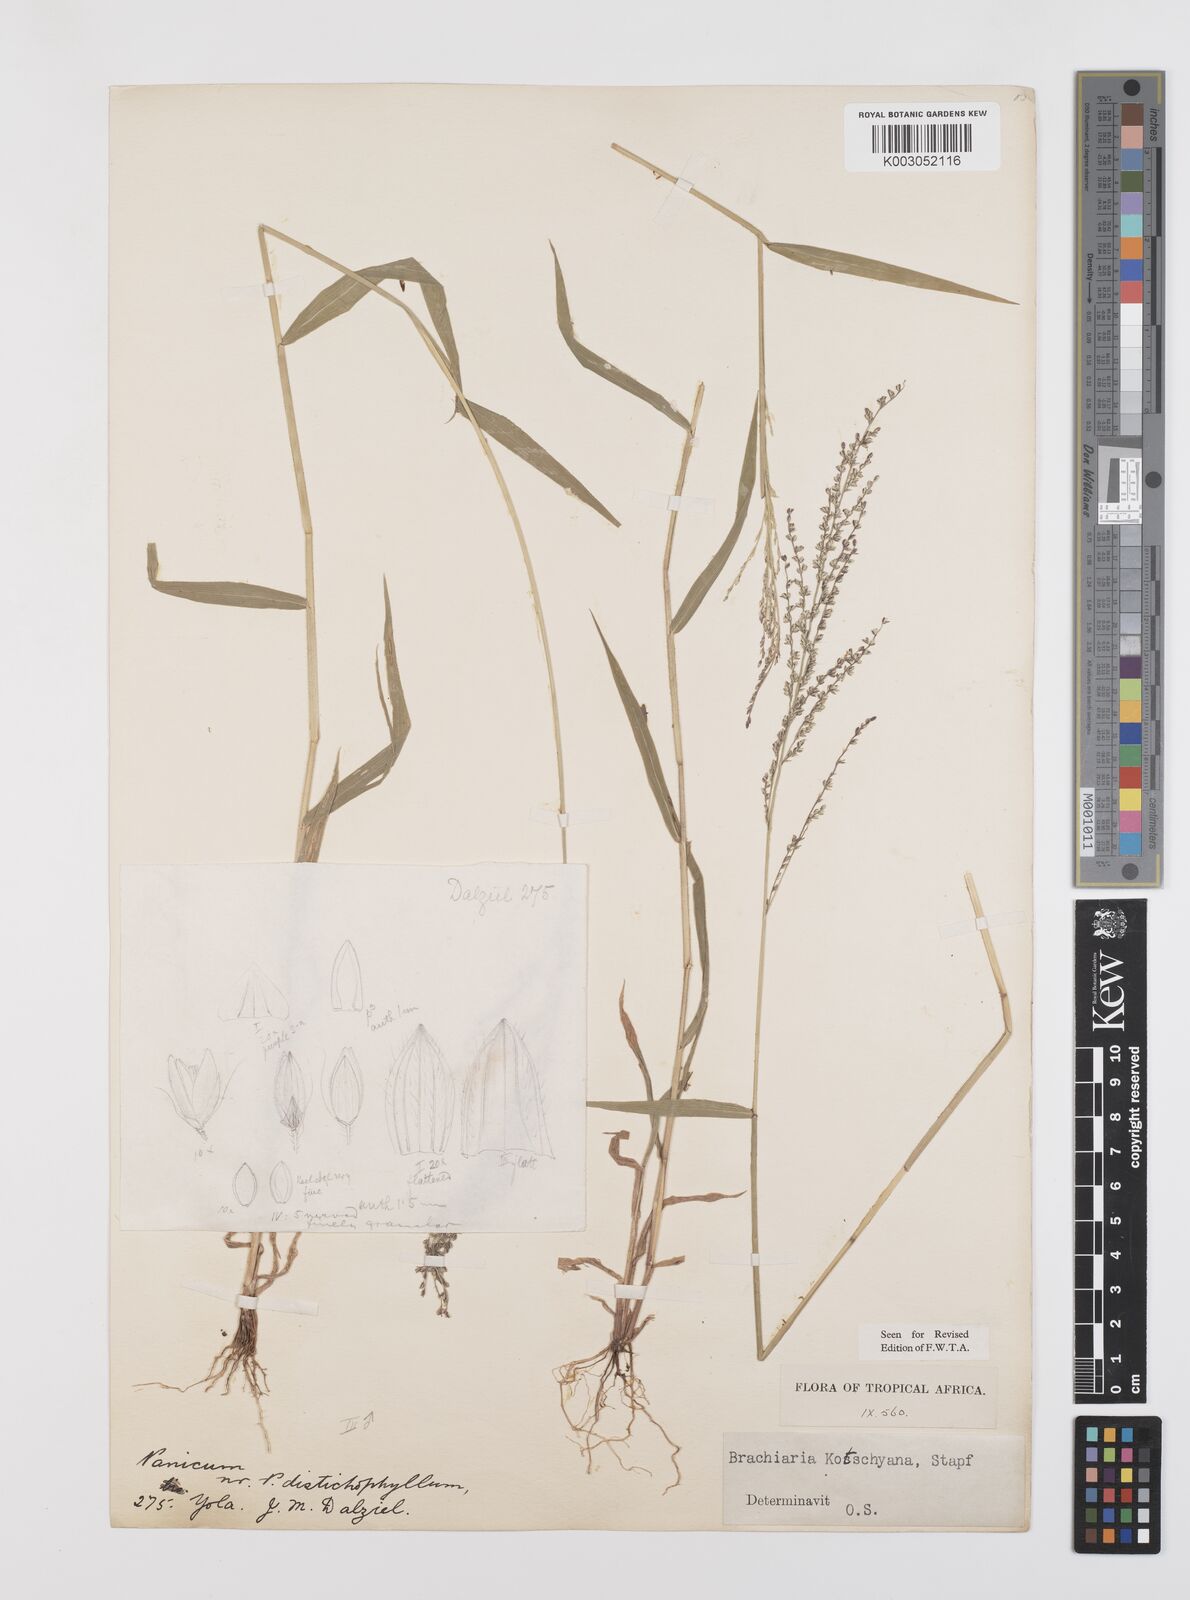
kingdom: Plantae
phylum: Tracheophyta
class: Liliopsida
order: Poales
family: Poaceae
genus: Urochloa
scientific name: Urochloa comata
